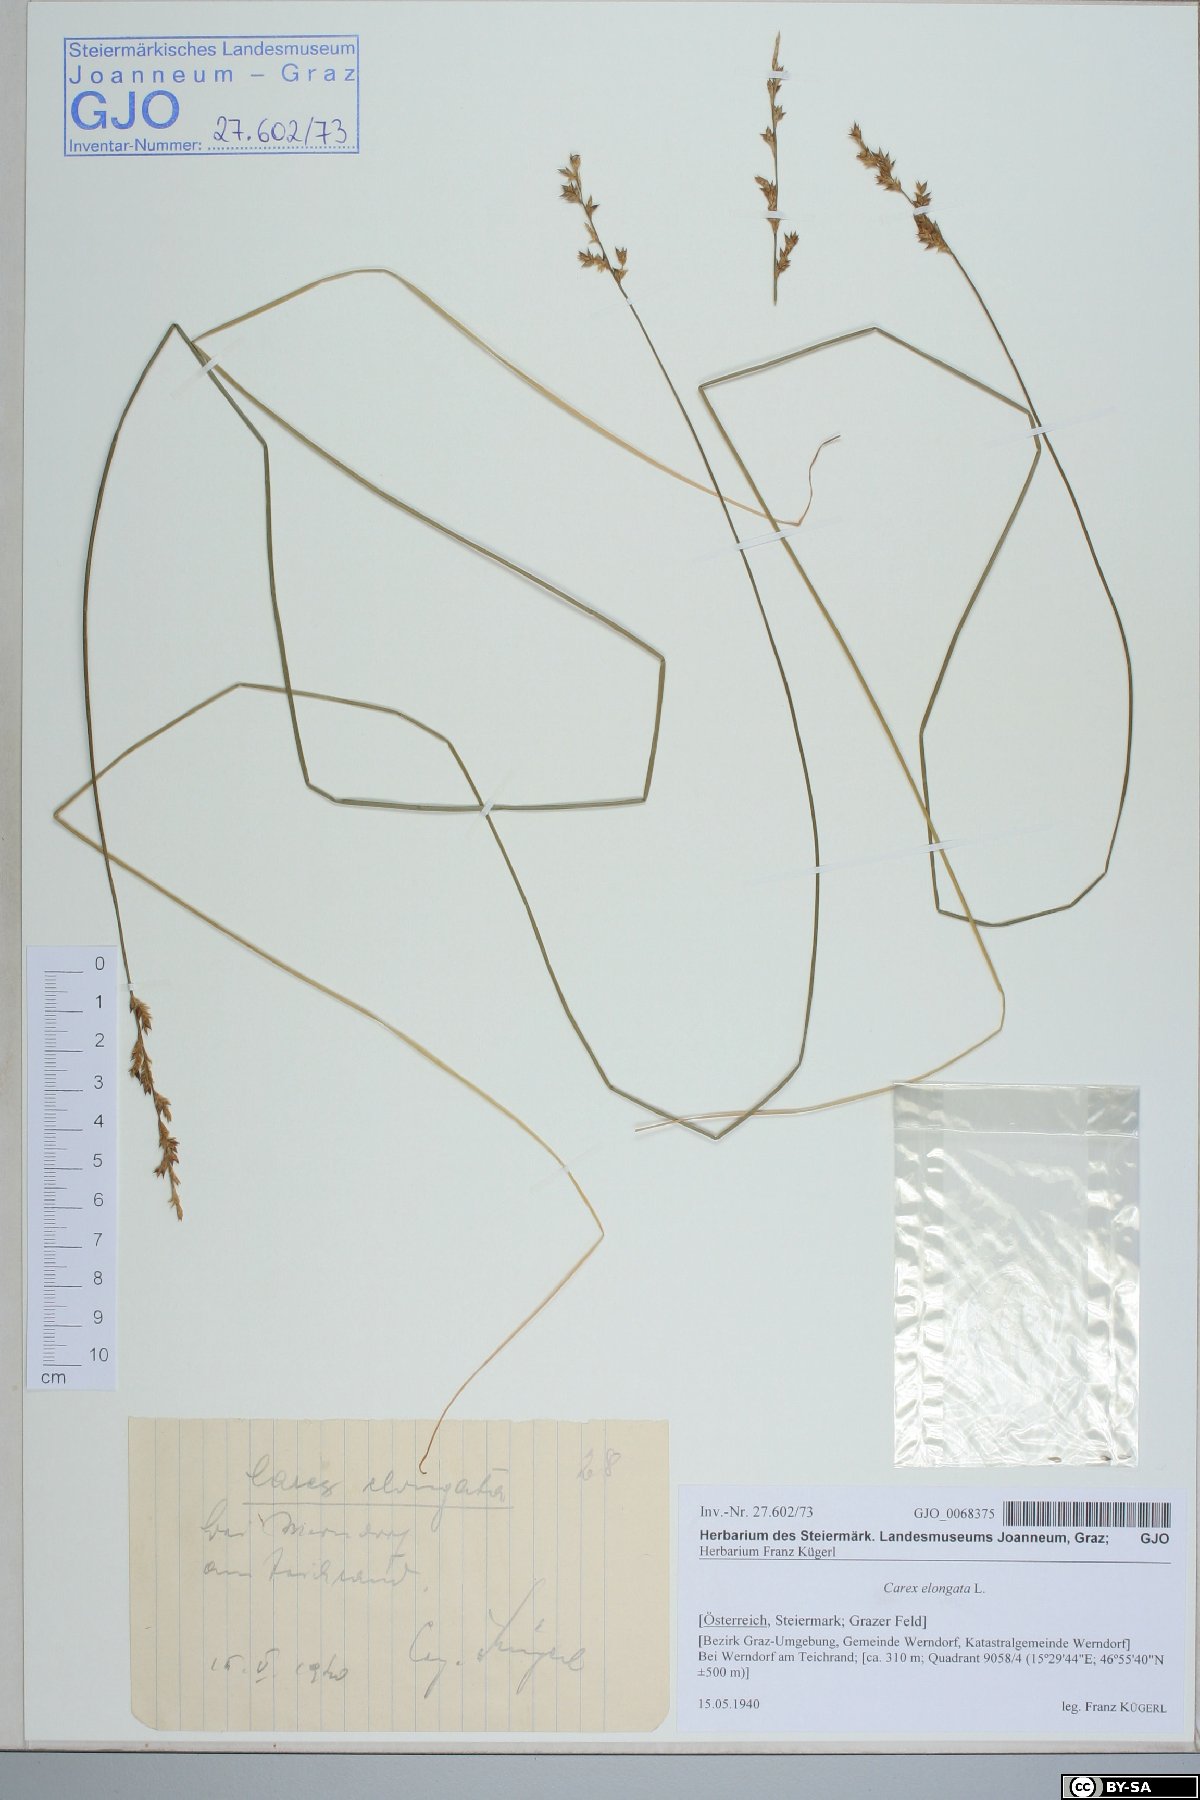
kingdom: Plantae
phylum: Tracheophyta
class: Liliopsida
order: Poales
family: Cyperaceae
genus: Carex
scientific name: Carex elongata
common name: Elongated sedge
